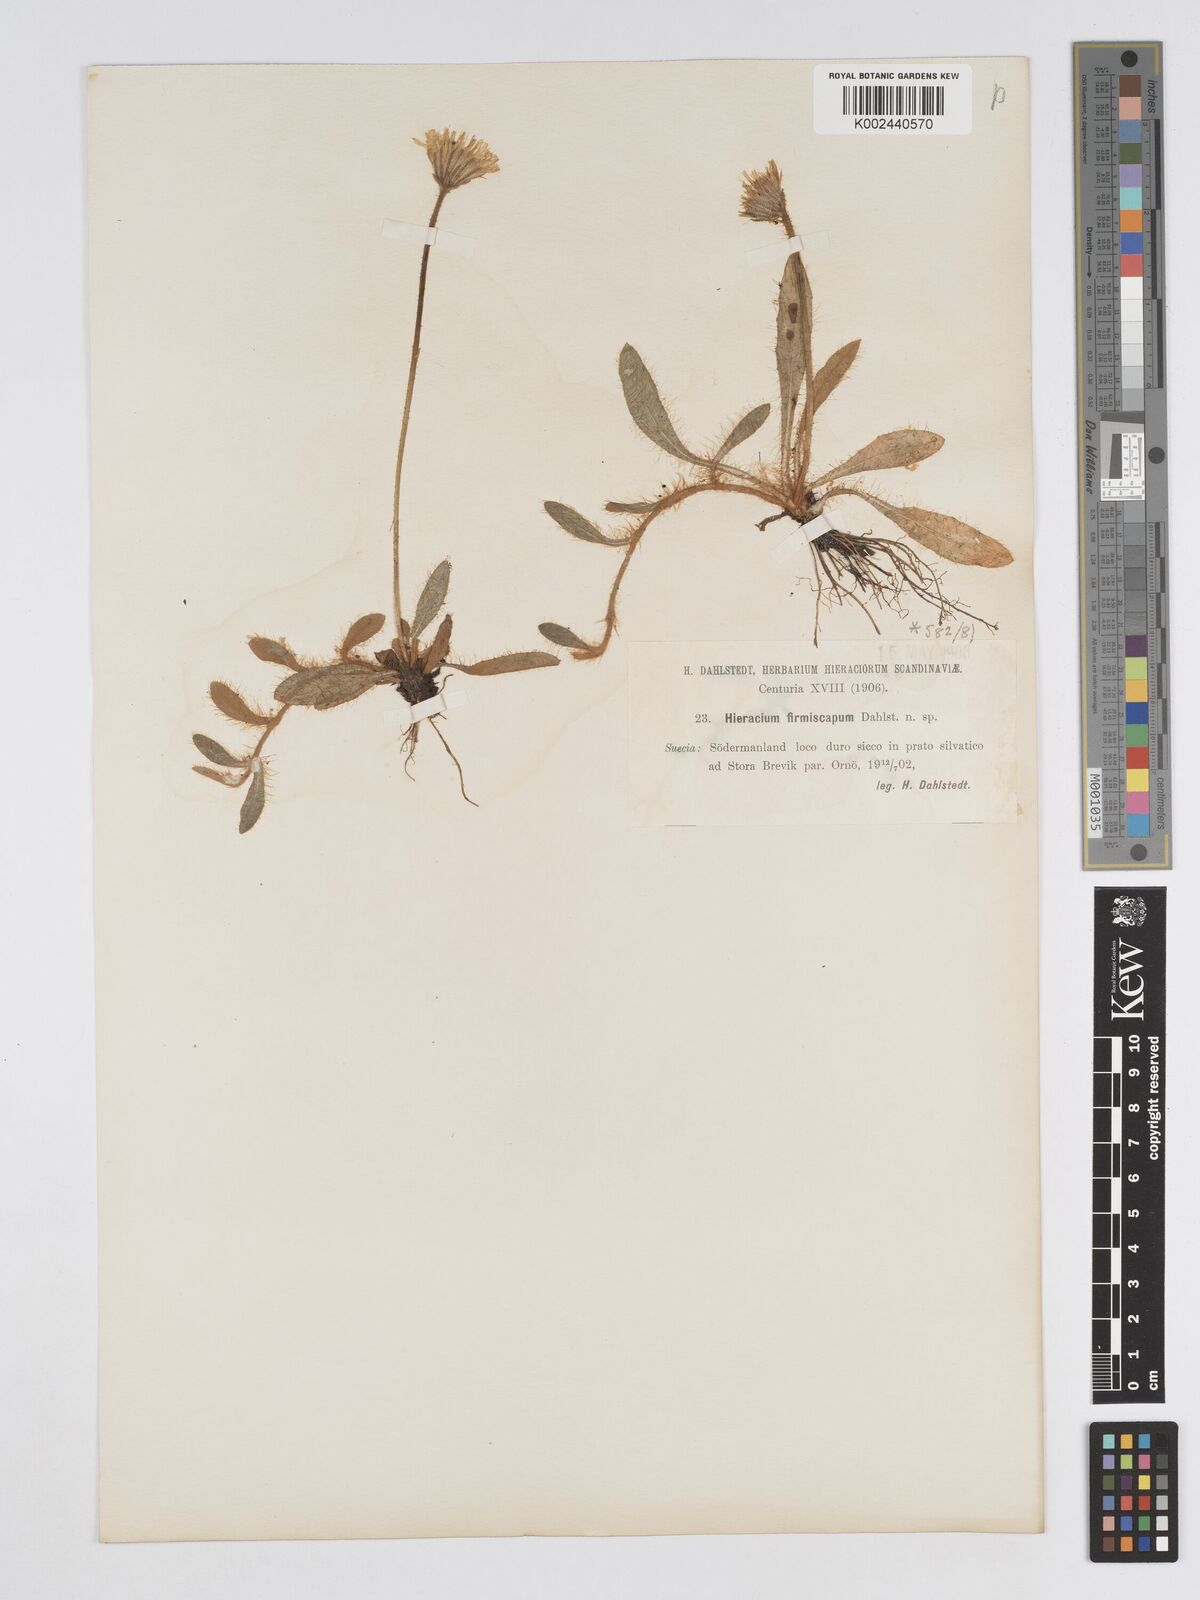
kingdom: Plantae
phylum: Tracheophyta
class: Magnoliopsida
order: Asterales
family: Asteraceae
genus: Pilosella
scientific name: Pilosella longisquama
